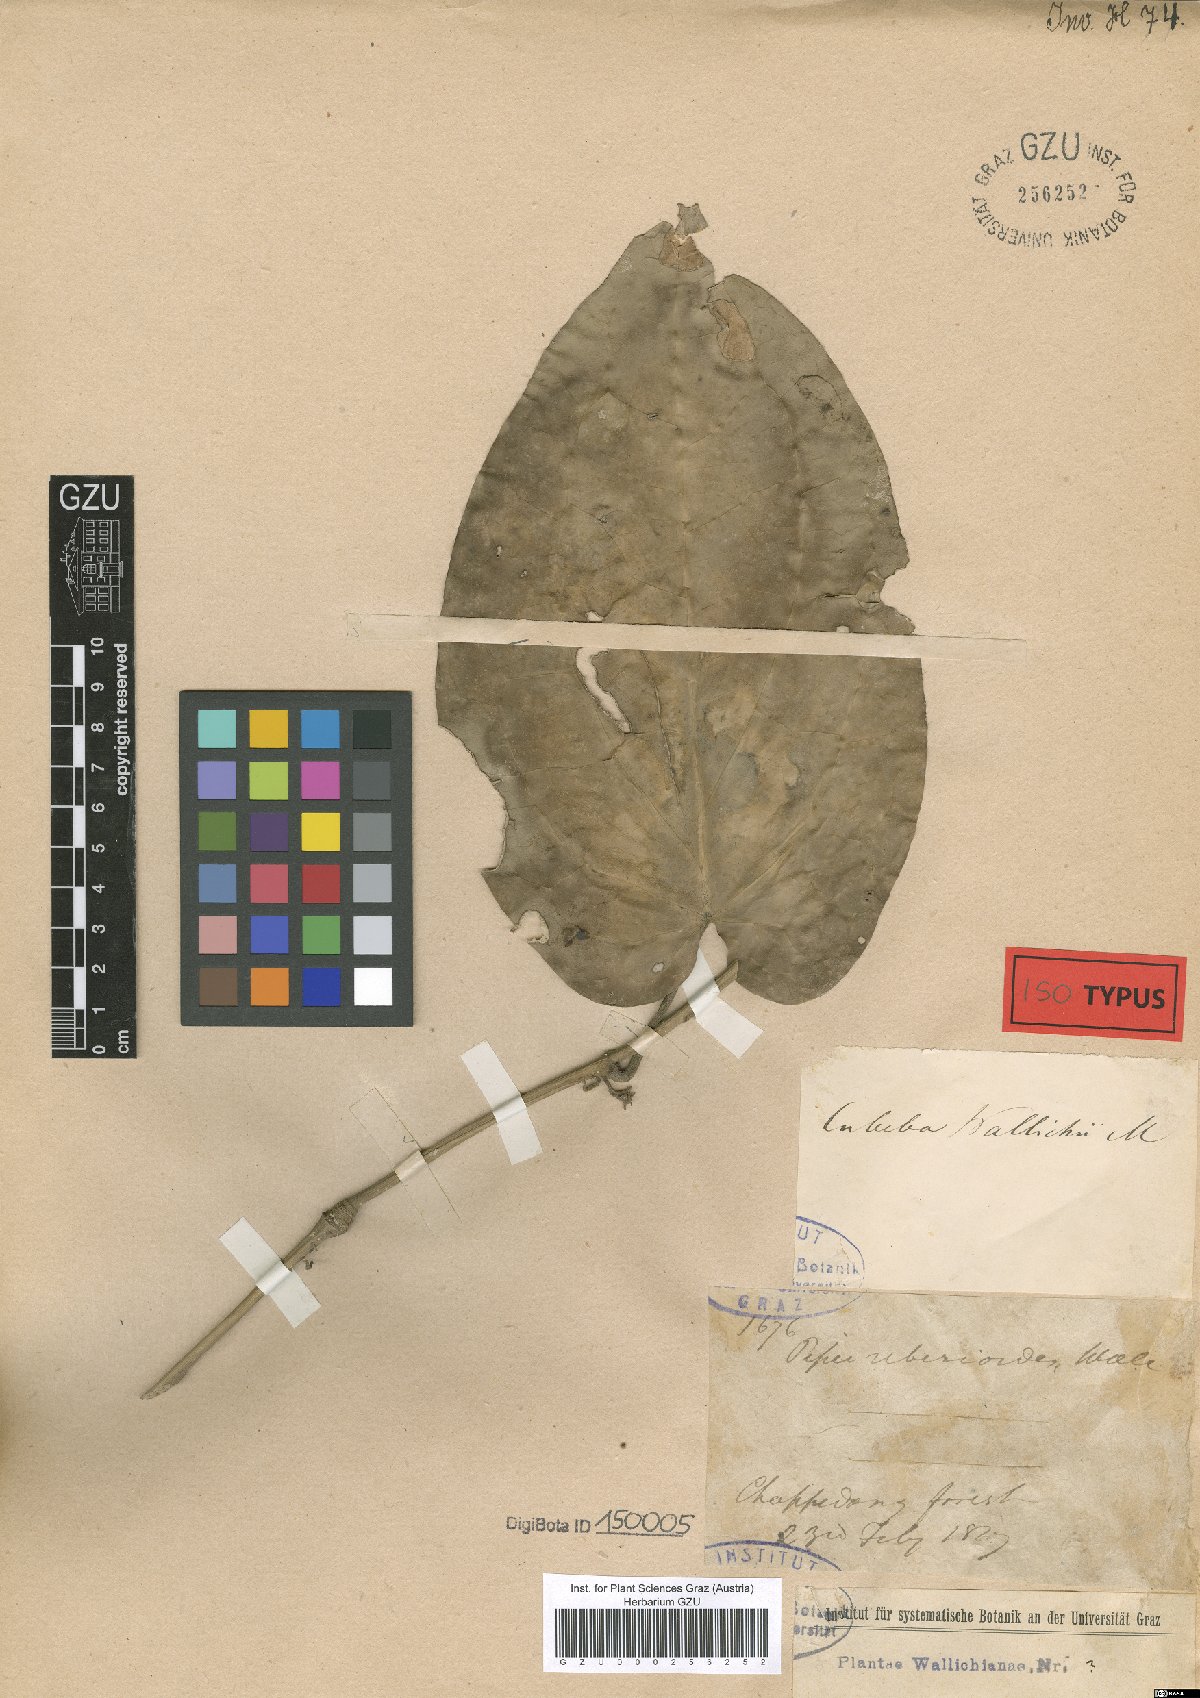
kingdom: Plantae
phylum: Tracheophyta
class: Magnoliopsida
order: Piperales
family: Piperaceae
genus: Piper
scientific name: Piper ribesioides
